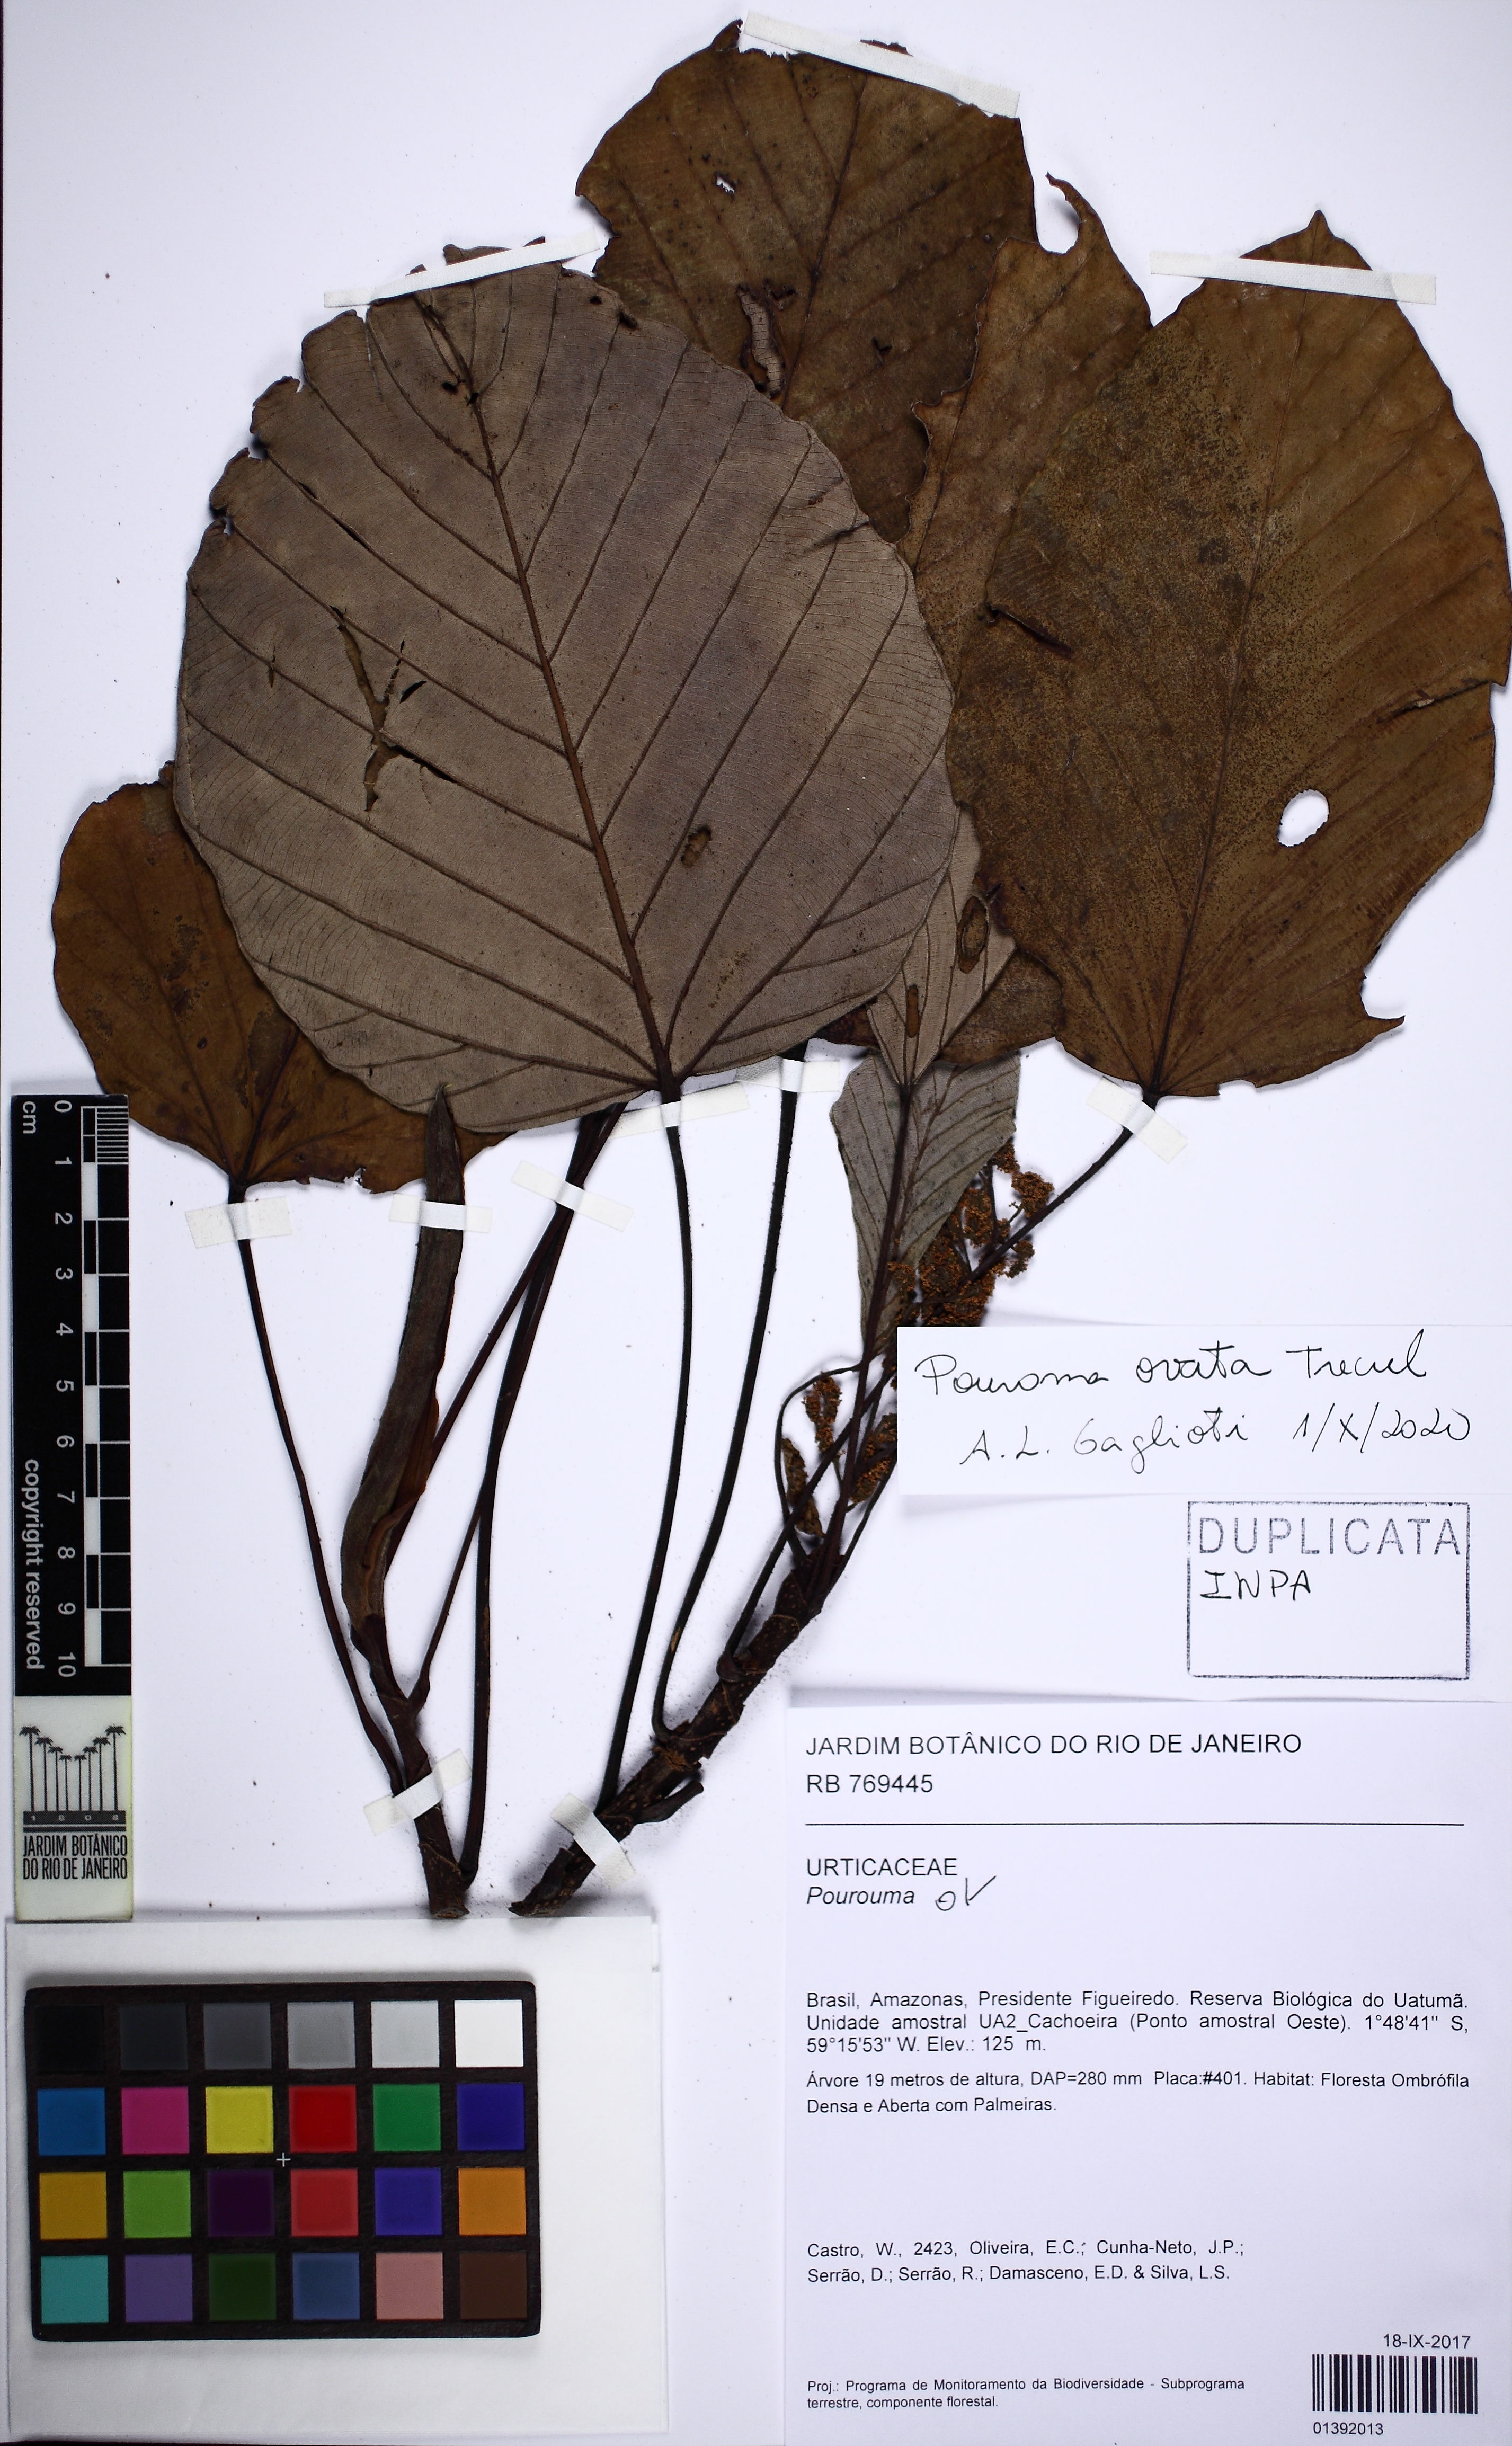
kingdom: Plantae
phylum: Tracheophyta
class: Magnoliopsida
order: Rosales
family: Urticaceae
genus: Pourouma
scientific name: Pourouma ovata
